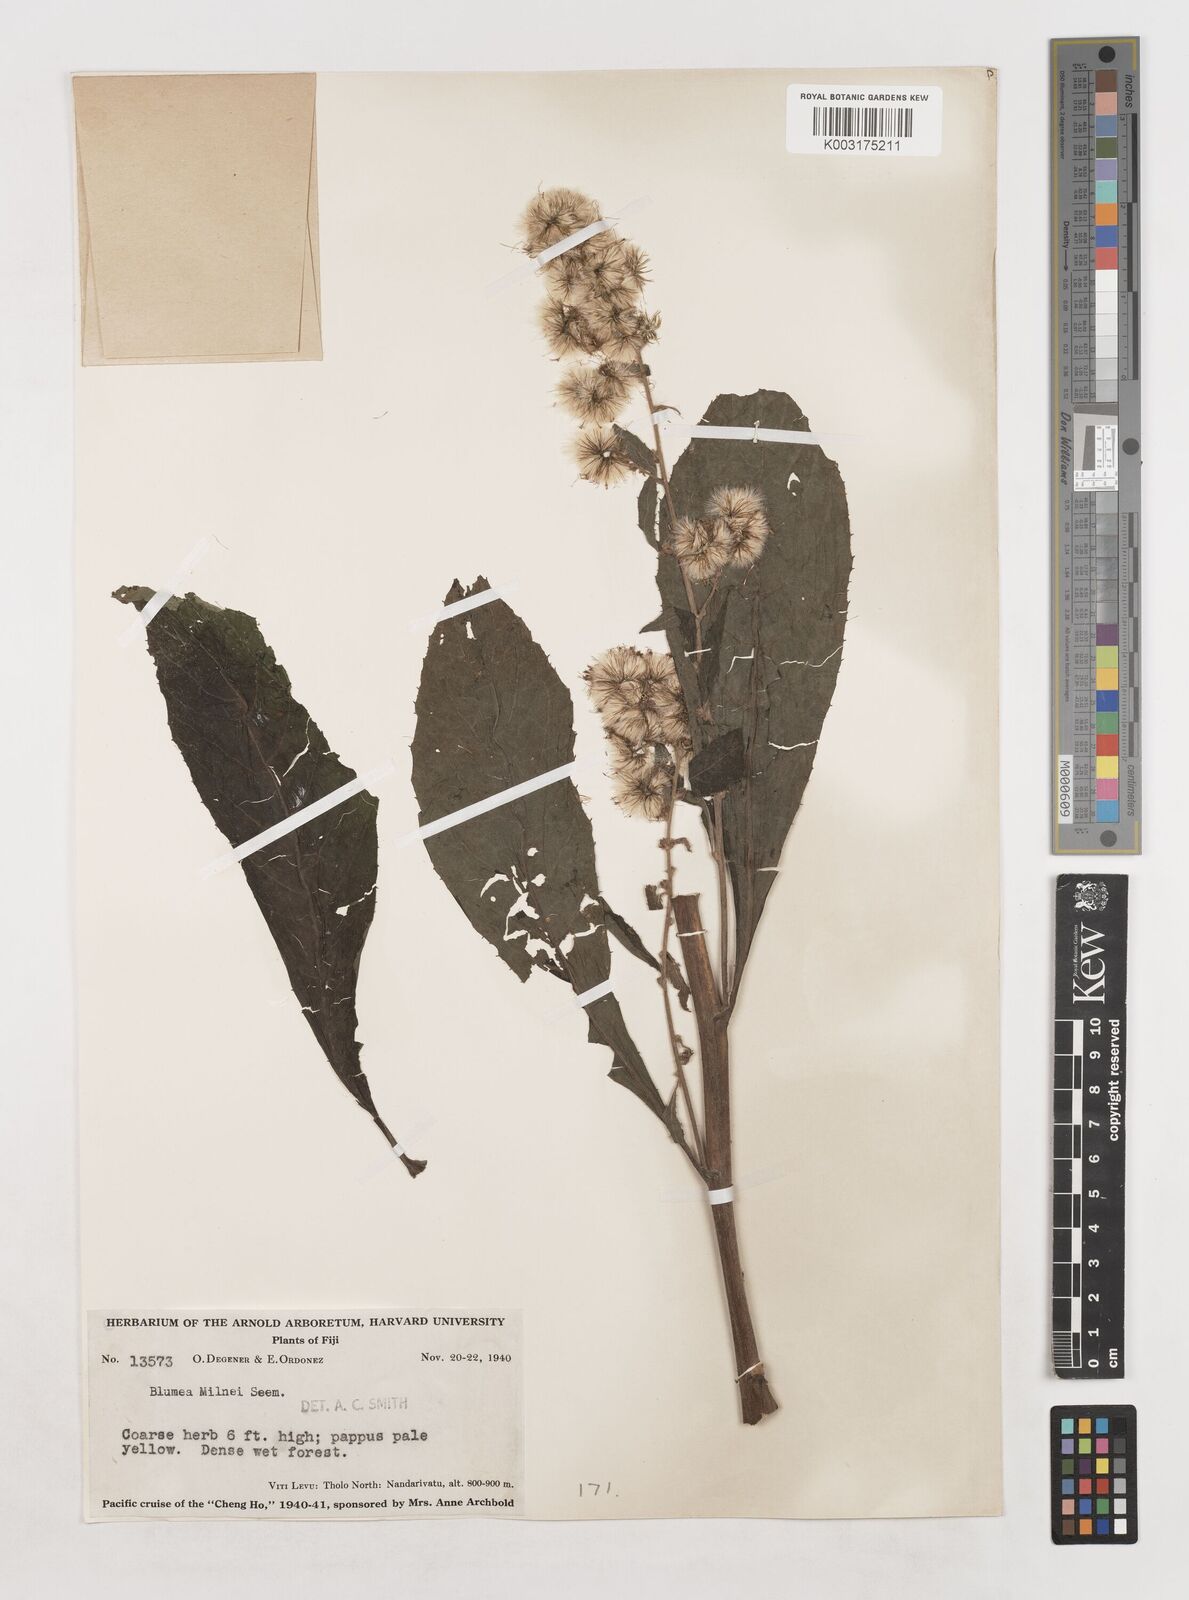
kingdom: Plantae
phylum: Tracheophyta
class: Magnoliopsida
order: Asterales
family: Asteraceae
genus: Blumea
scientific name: Blumea milnei
